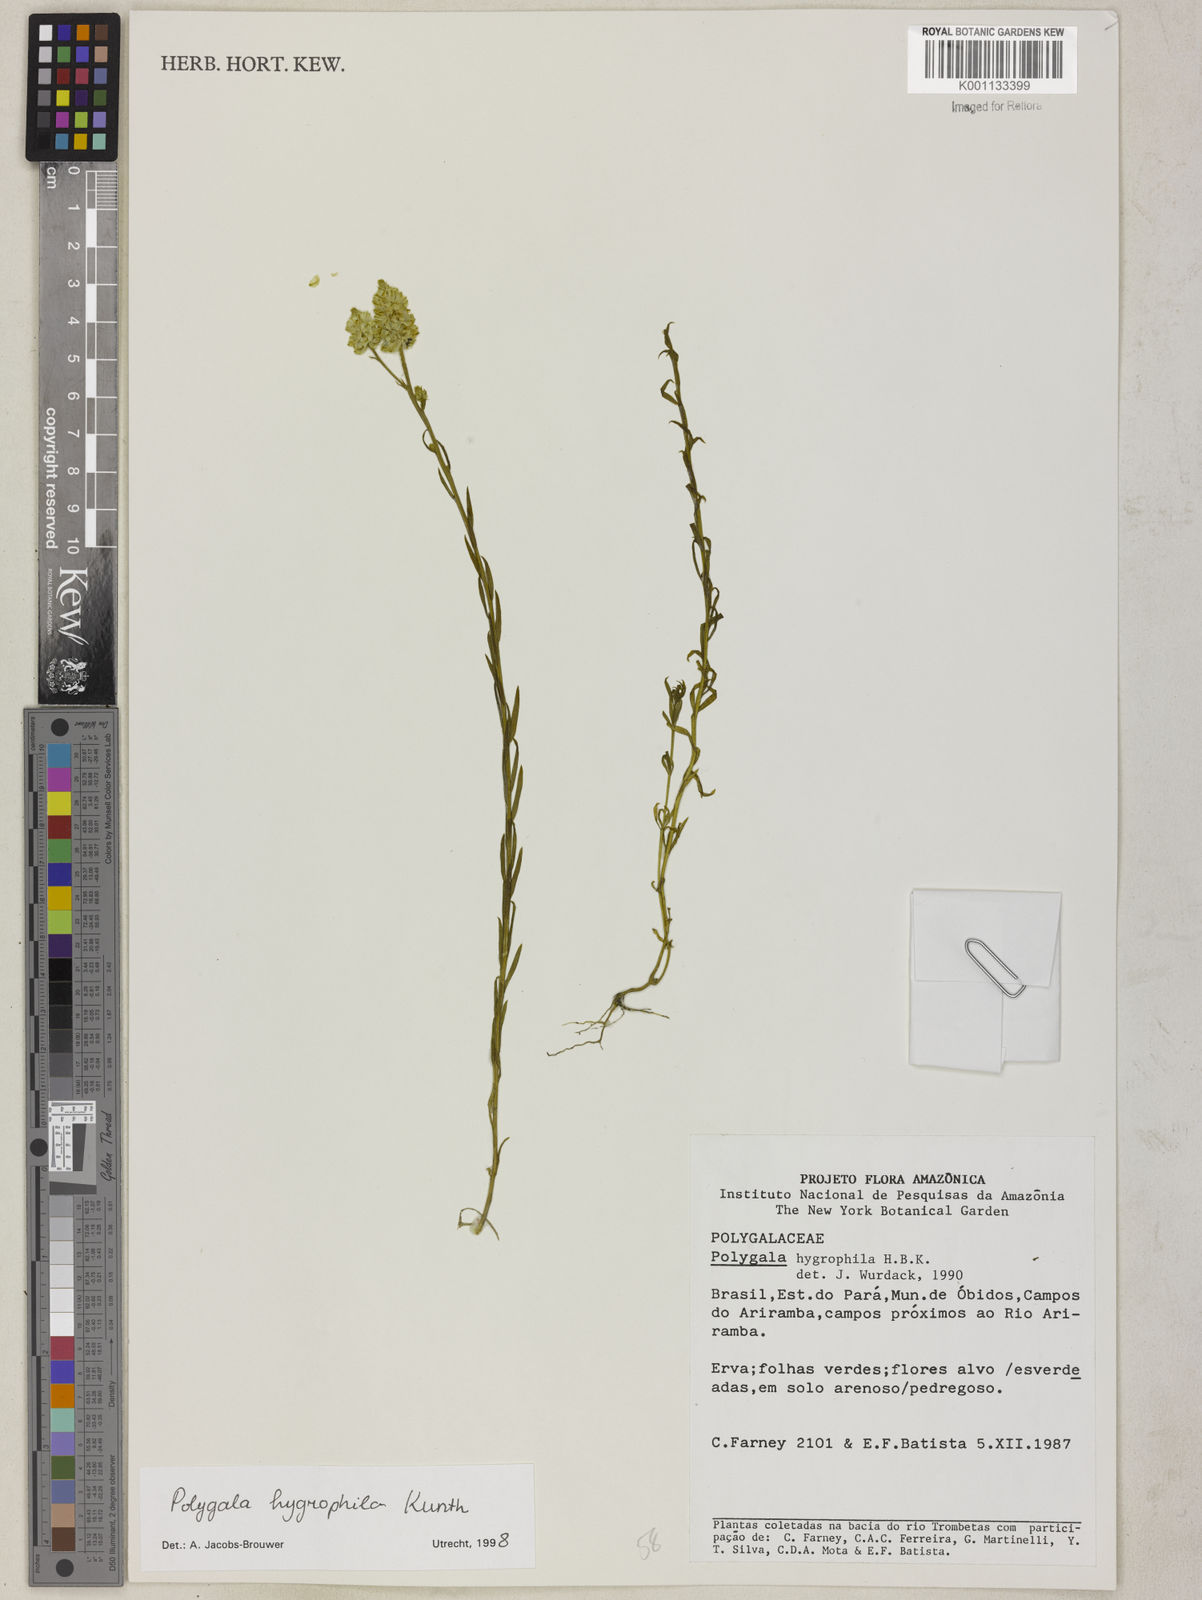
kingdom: Plantae
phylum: Tracheophyta
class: Magnoliopsida
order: Fabales
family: Polygalaceae
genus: Polygala
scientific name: Polygala hygrophila
